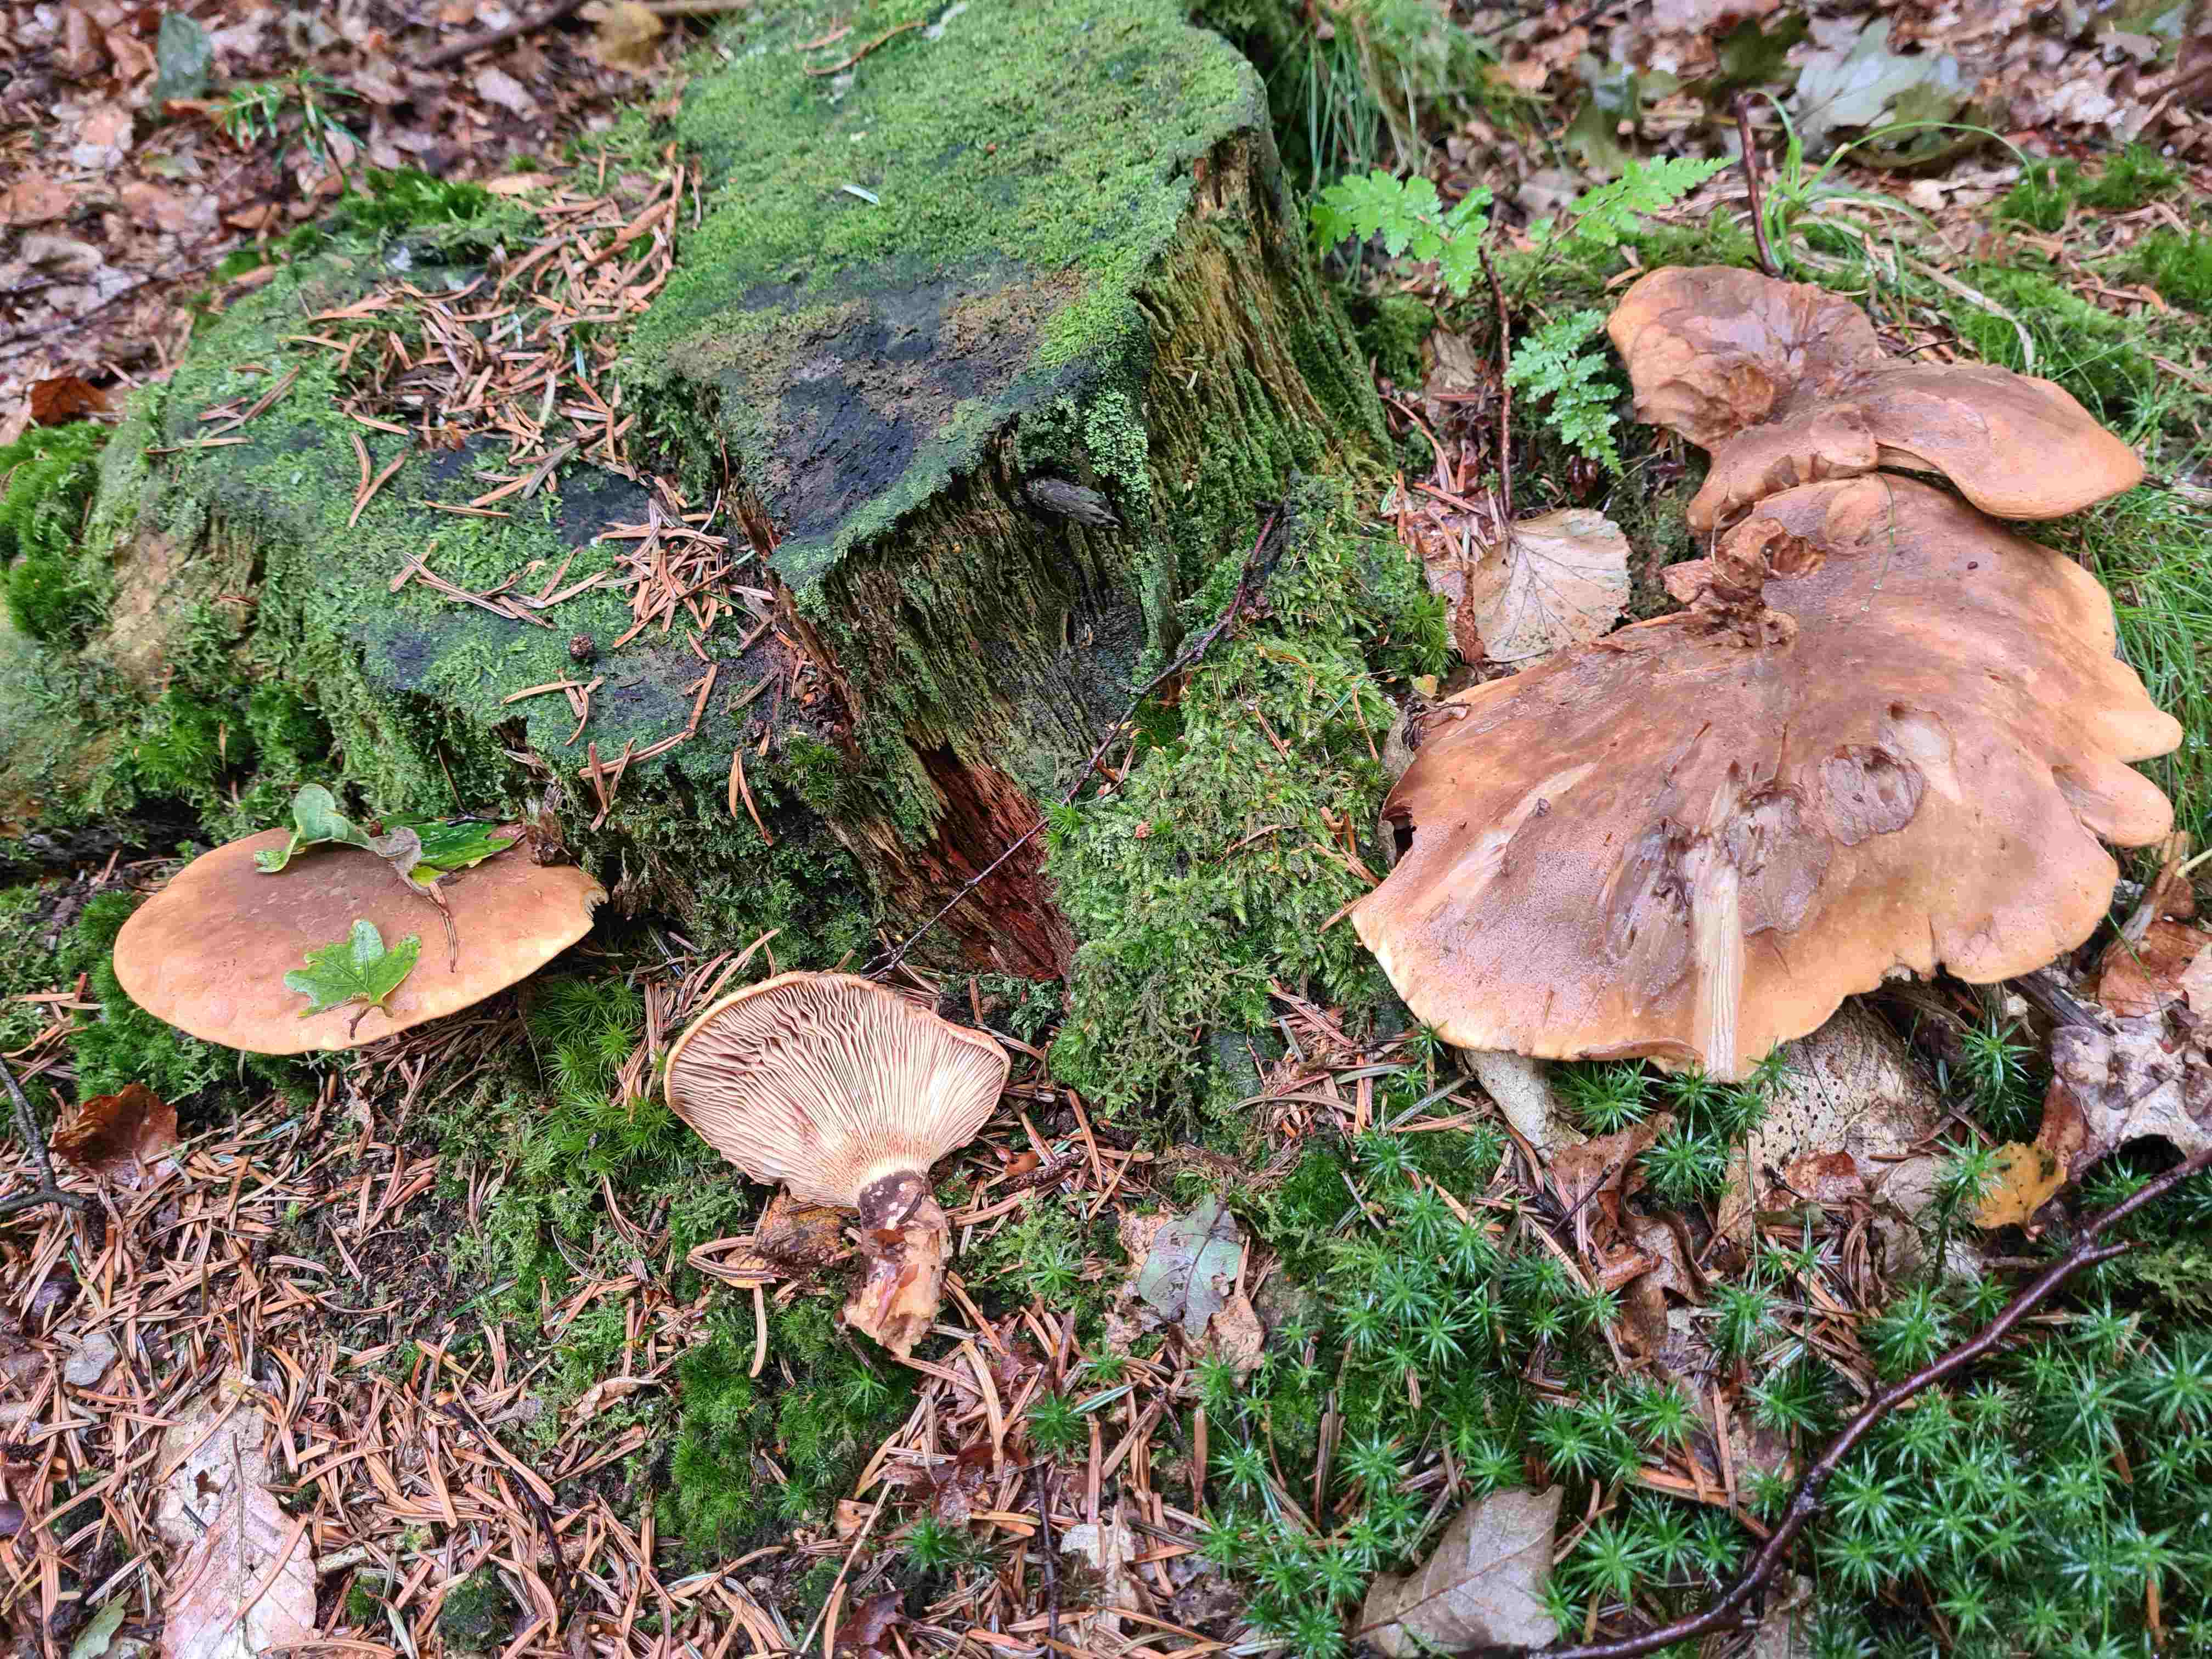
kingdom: Fungi
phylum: Basidiomycota
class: Agaricomycetes
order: Boletales
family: Tapinellaceae
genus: Tapinella
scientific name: Tapinella atrotomentosa
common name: sortfiltet viftesvamp
